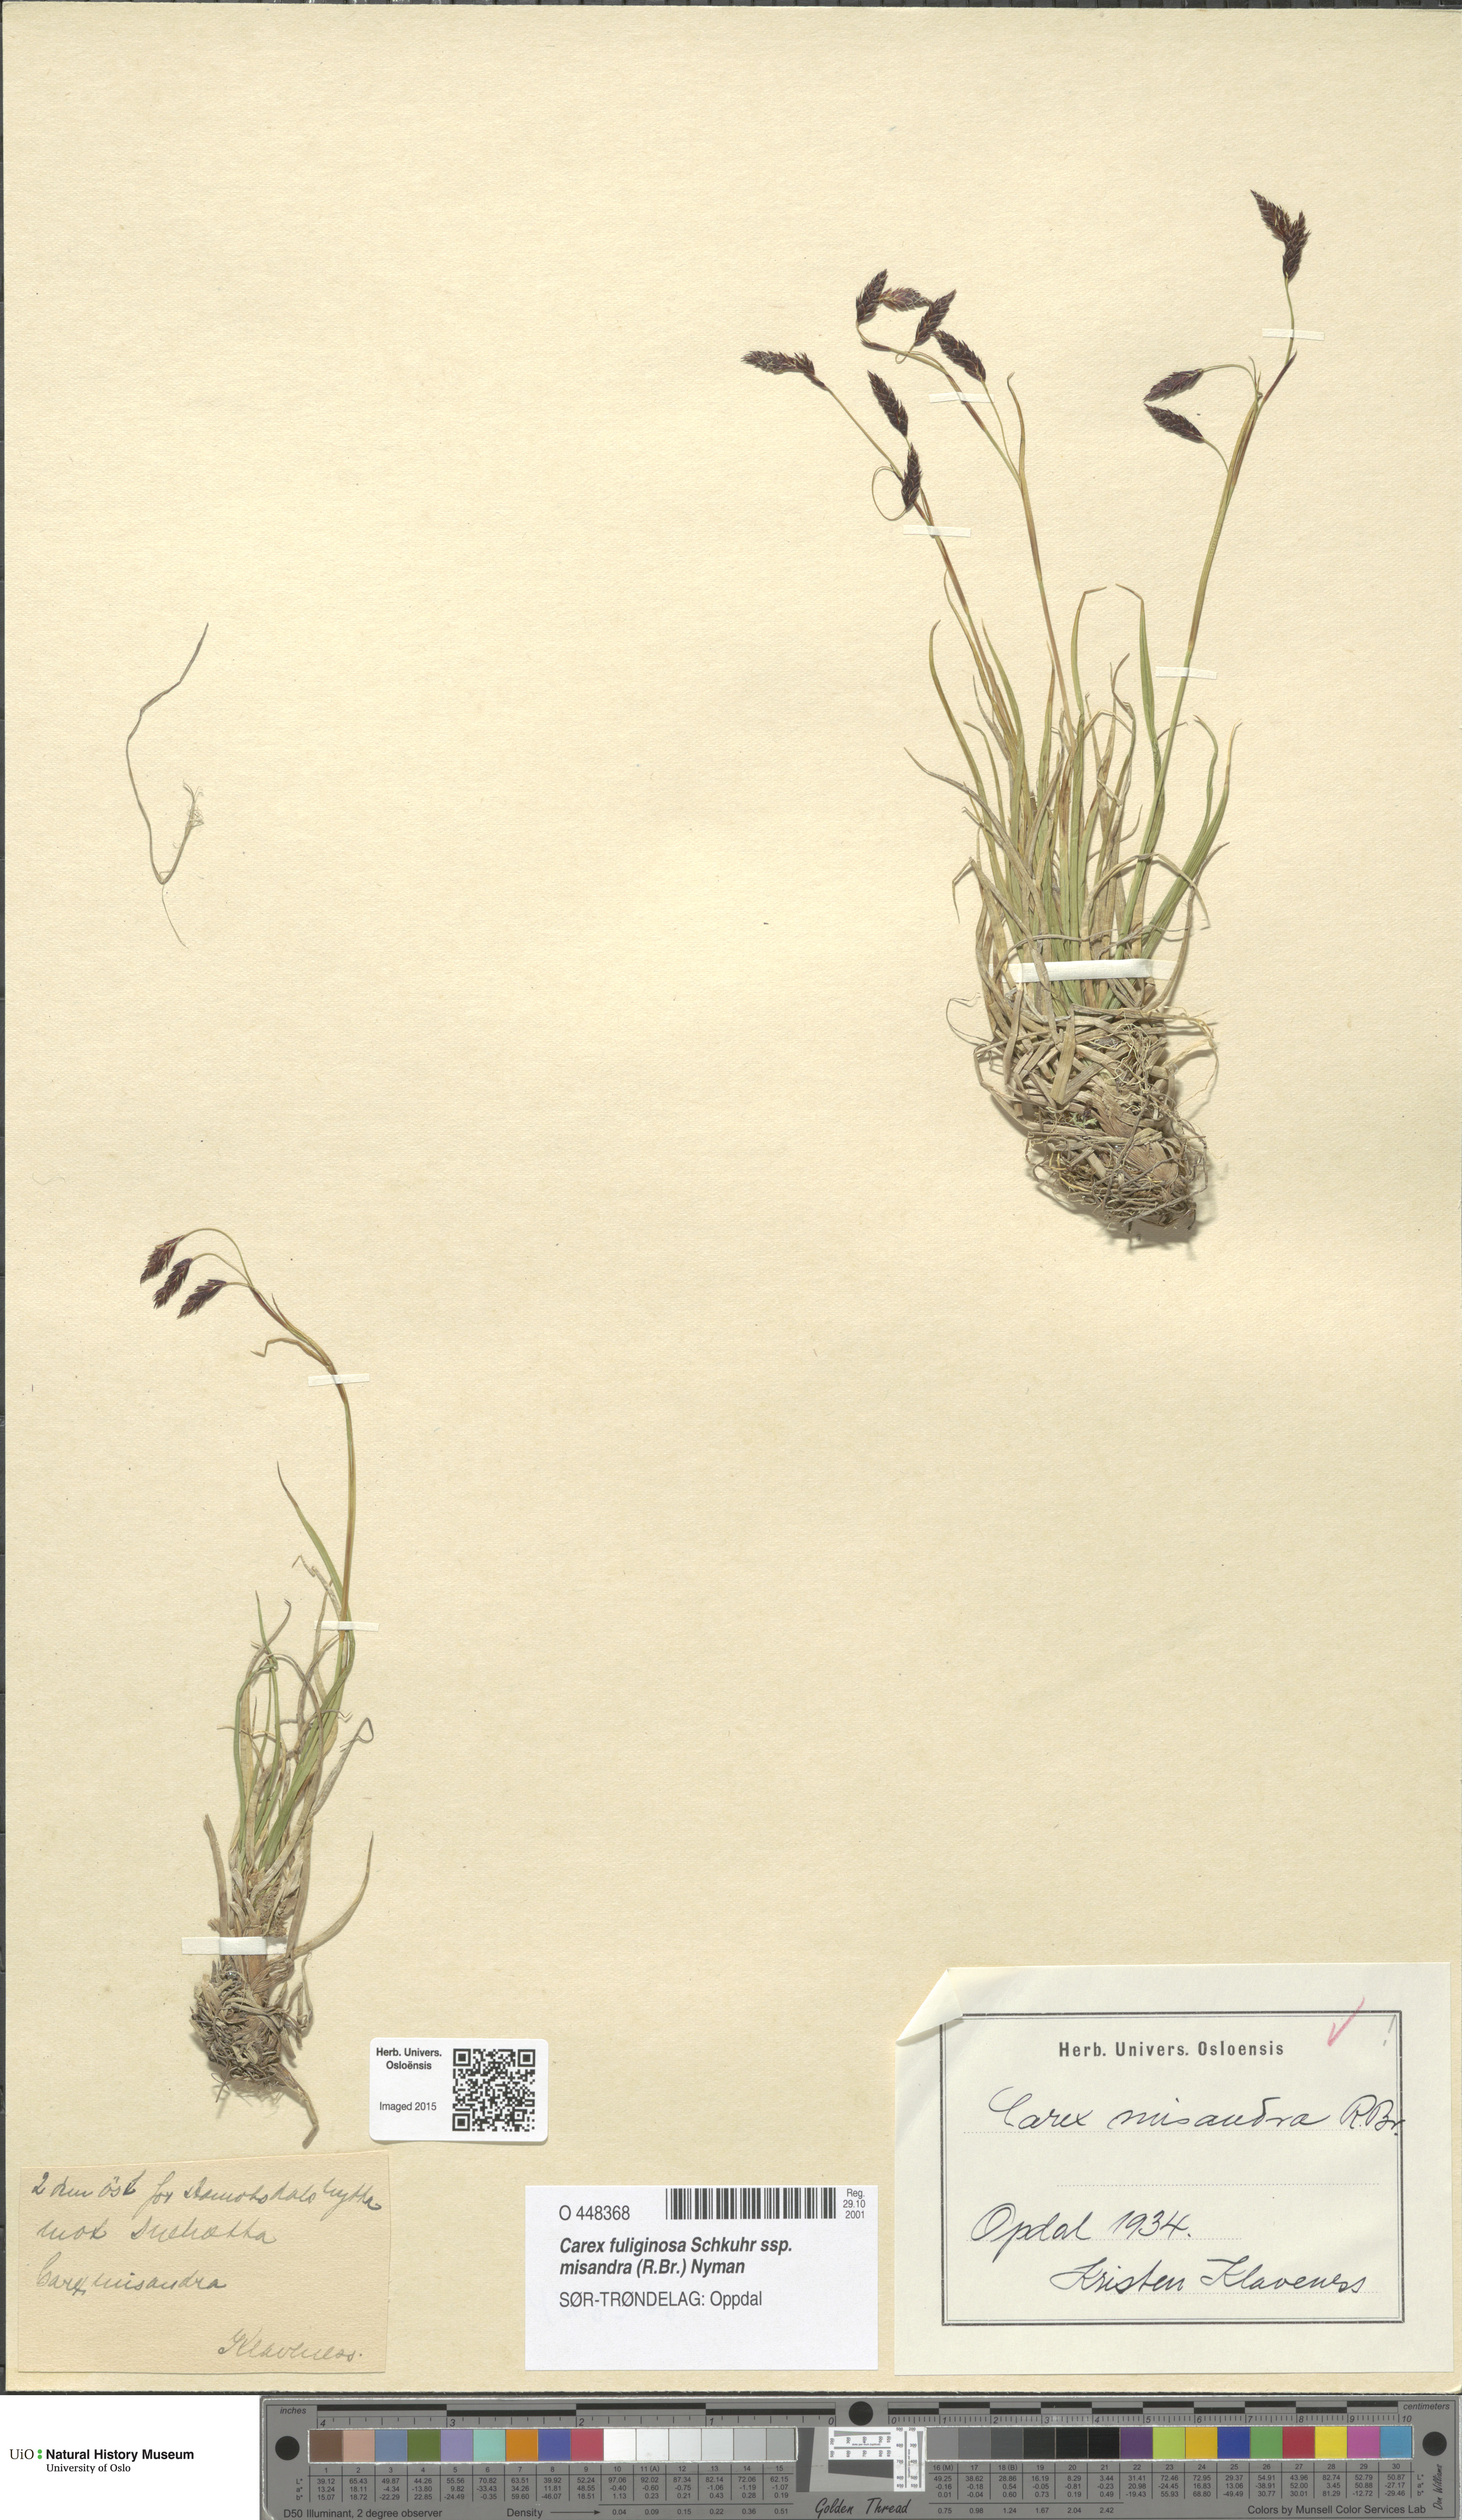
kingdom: Plantae
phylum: Tracheophyta
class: Liliopsida
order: Poales
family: Cyperaceae
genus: Carex
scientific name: Carex fuliginosa
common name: Few-flowered sedge
